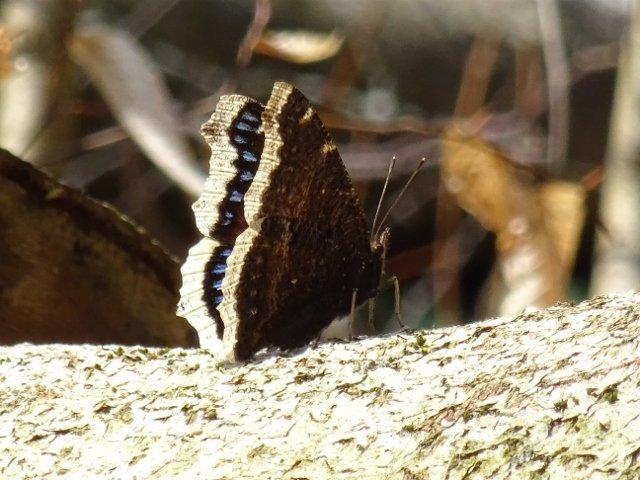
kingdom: Animalia
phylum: Arthropoda
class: Insecta
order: Lepidoptera
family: Nymphalidae
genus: Nymphalis
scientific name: Nymphalis antiopa
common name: Mourning Cloak
